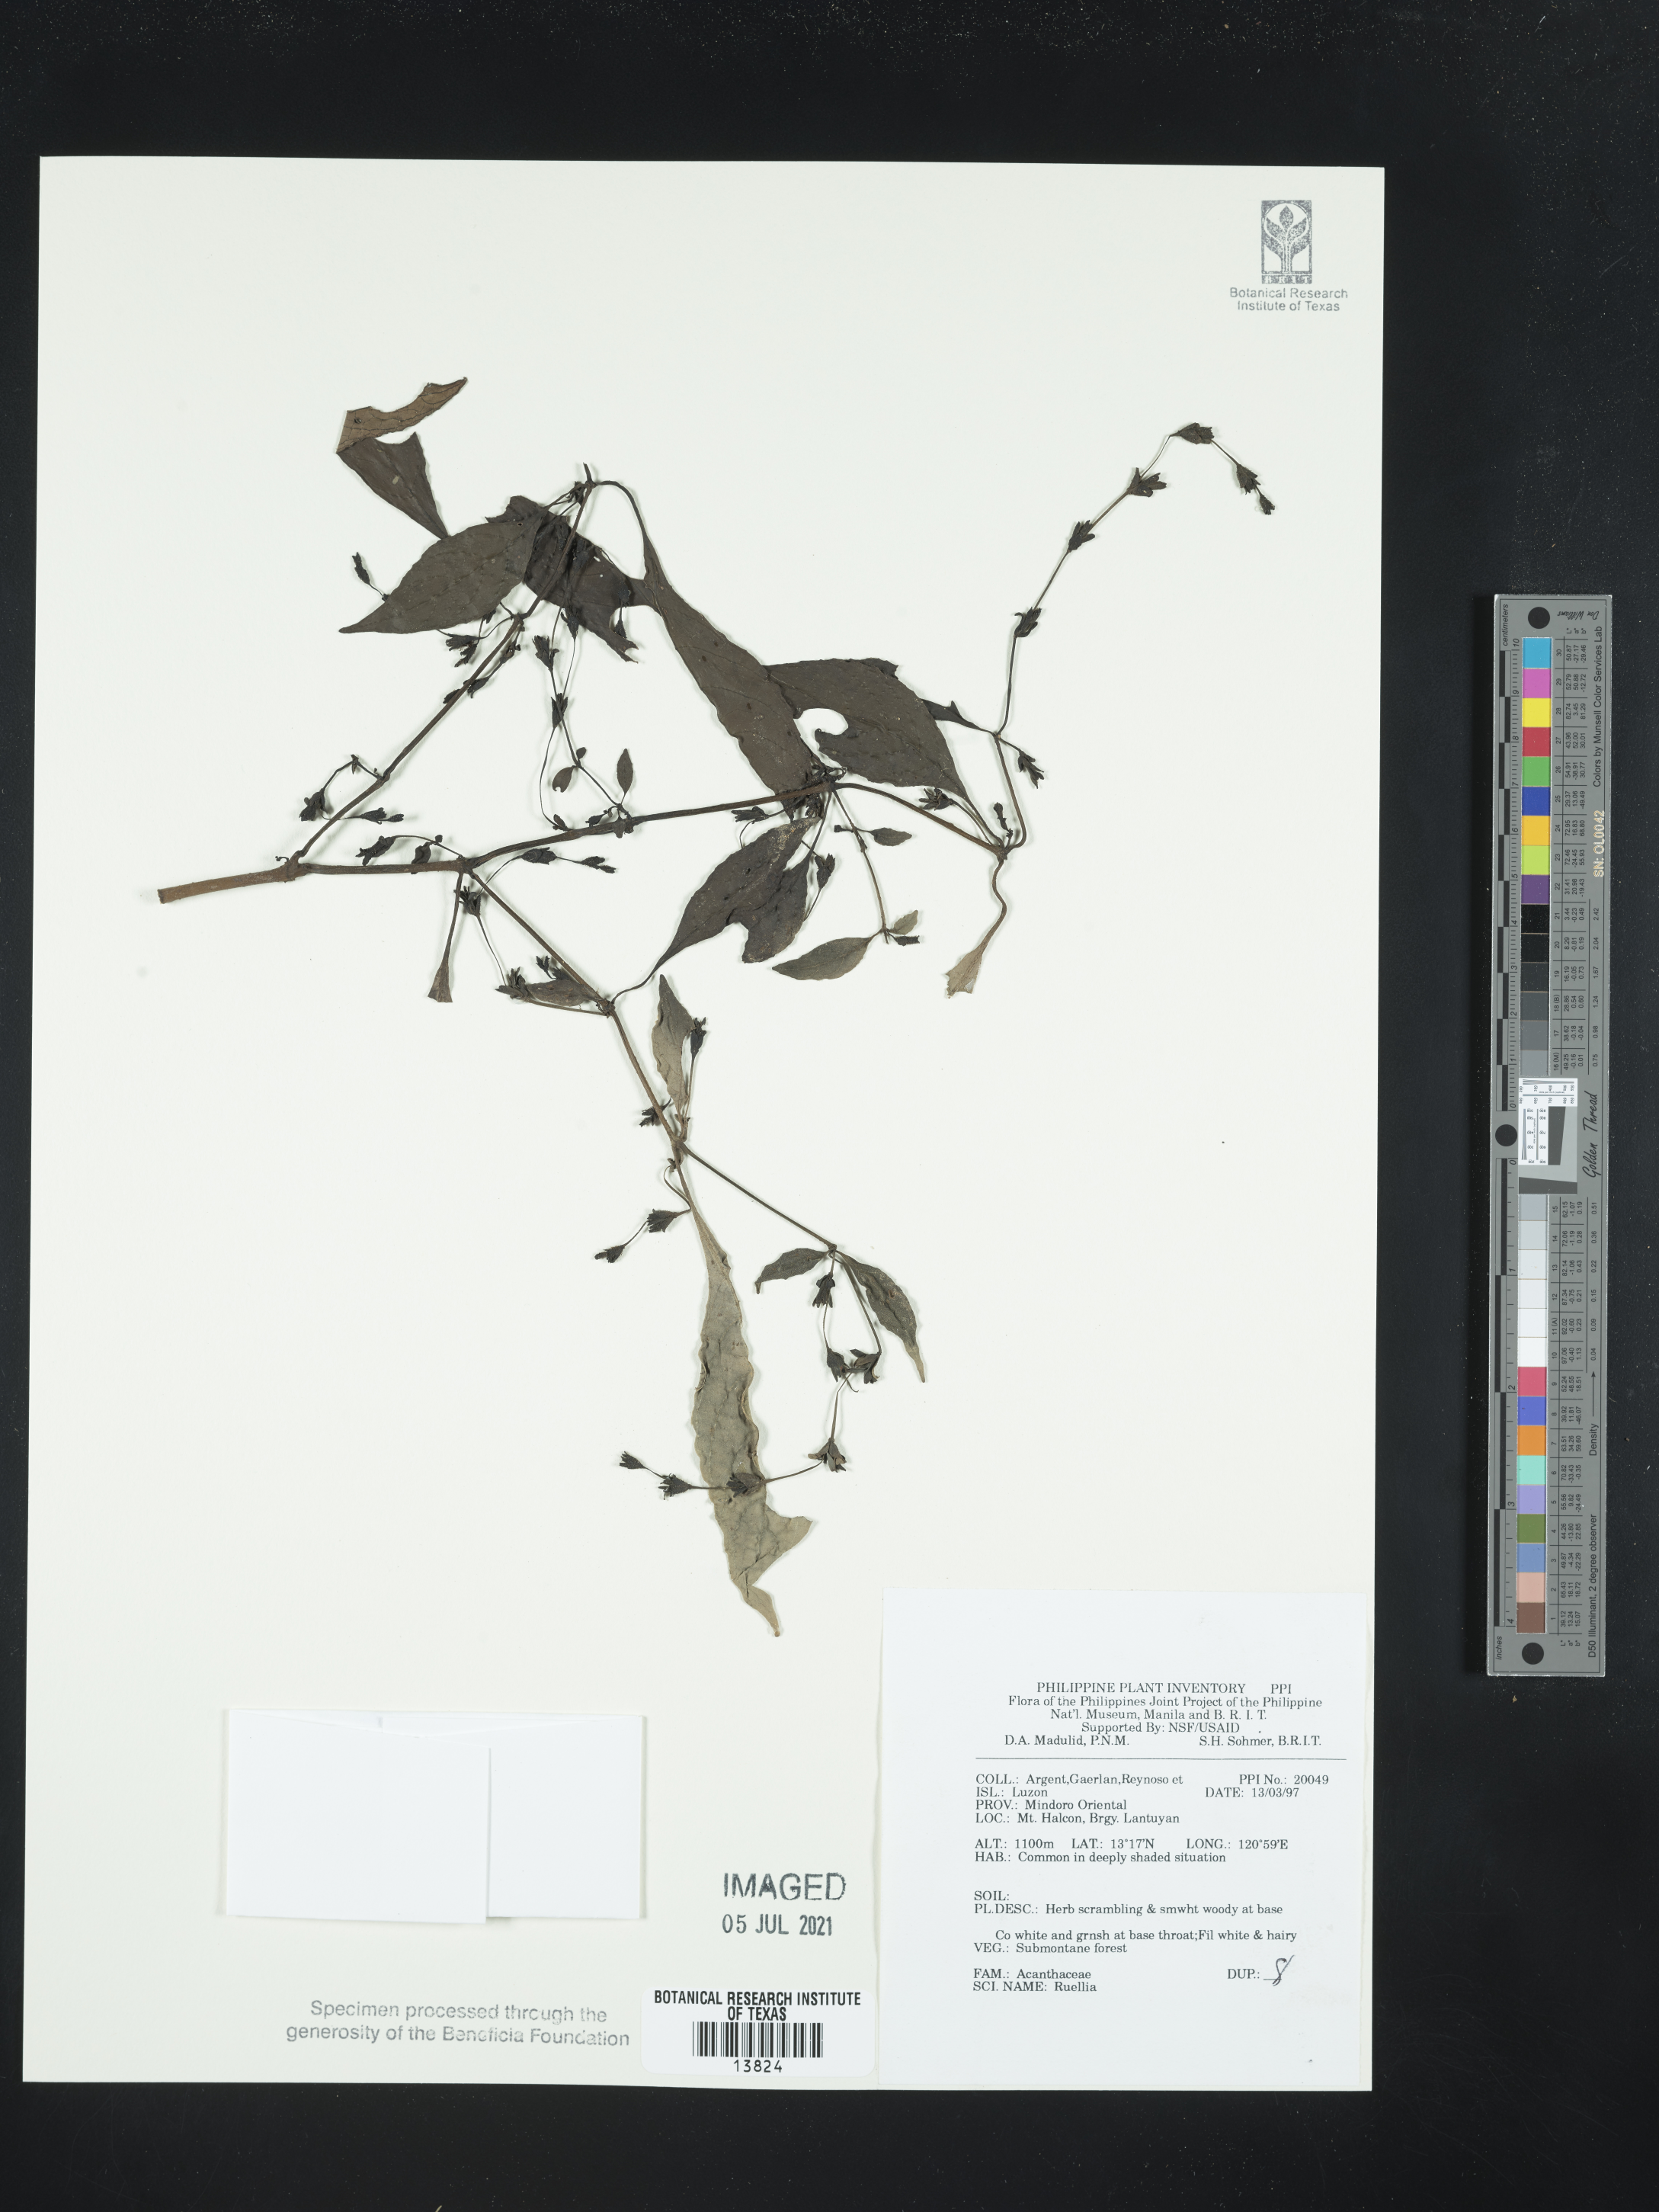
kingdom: Plantae
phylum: Tracheophyta
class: Magnoliopsida
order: Lamiales
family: Acanthaceae
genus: Ruellia
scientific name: Ruellia
